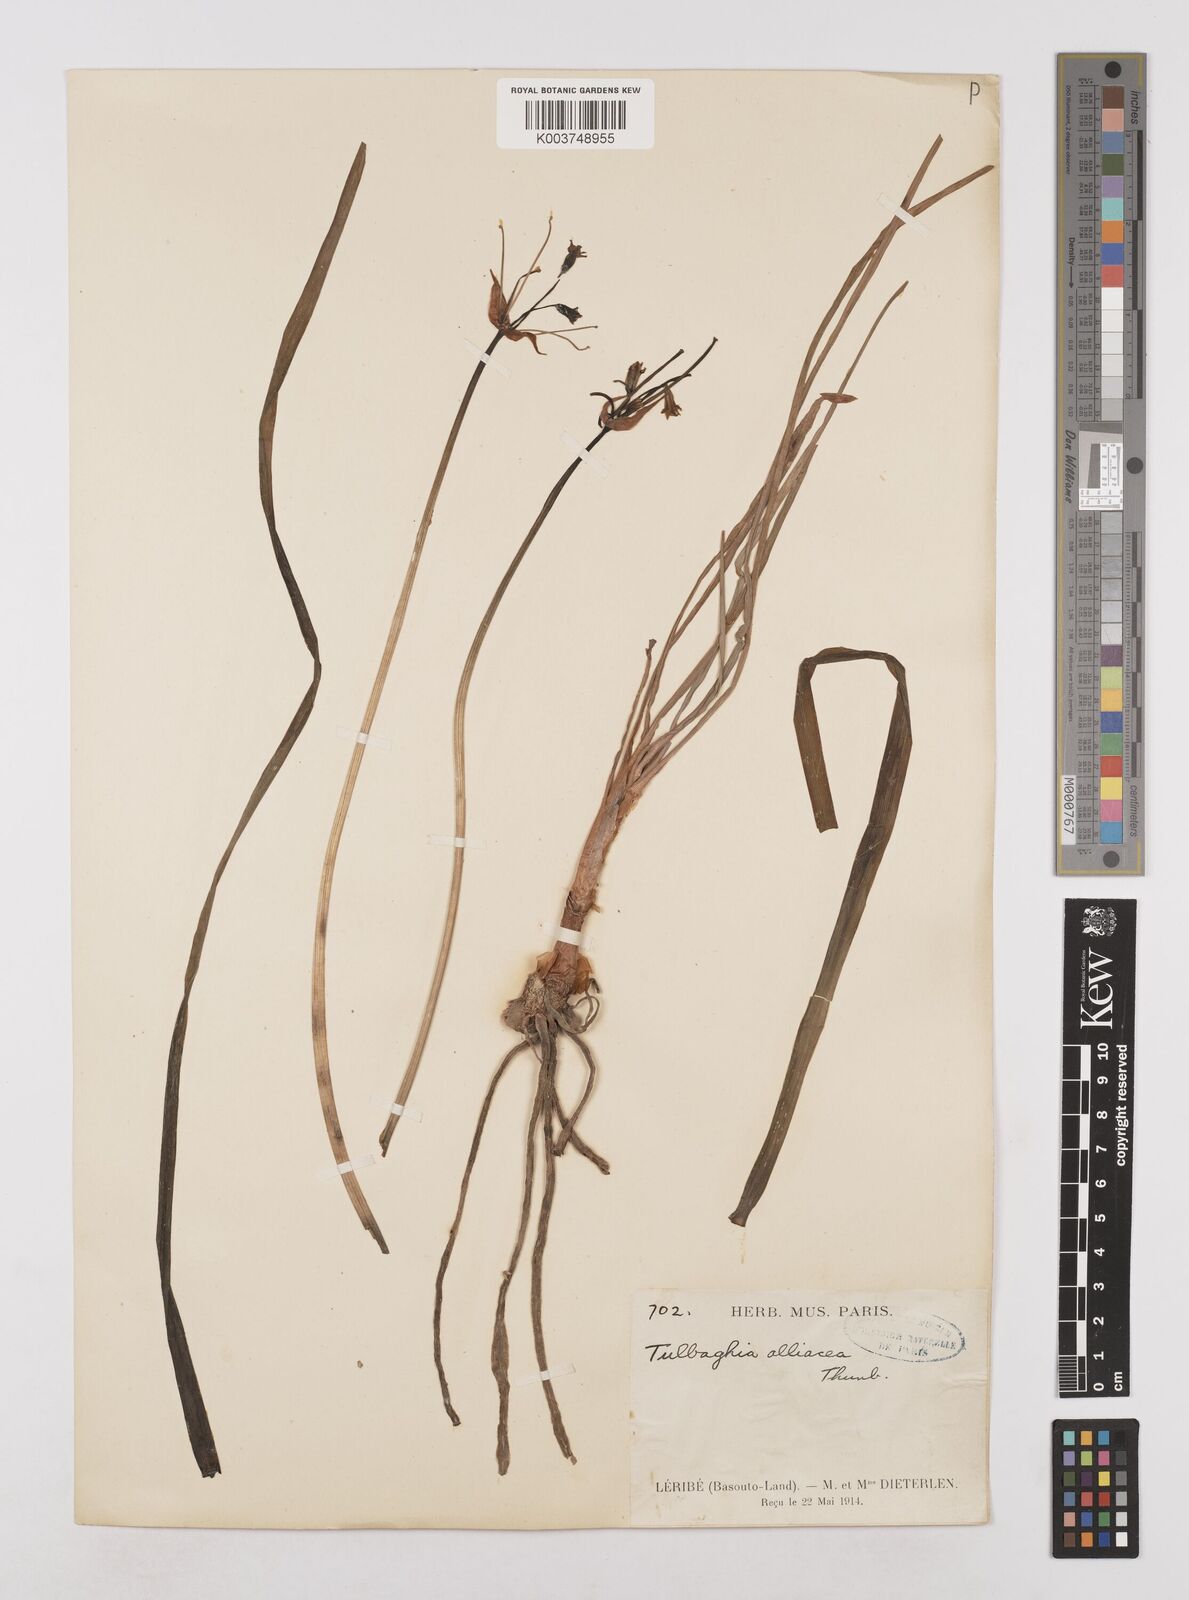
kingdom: Plantae
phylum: Tracheophyta
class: Liliopsida
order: Asparagales
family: Amaryllidaceae
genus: Tulbaghia
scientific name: Tulbaghia alliacea
